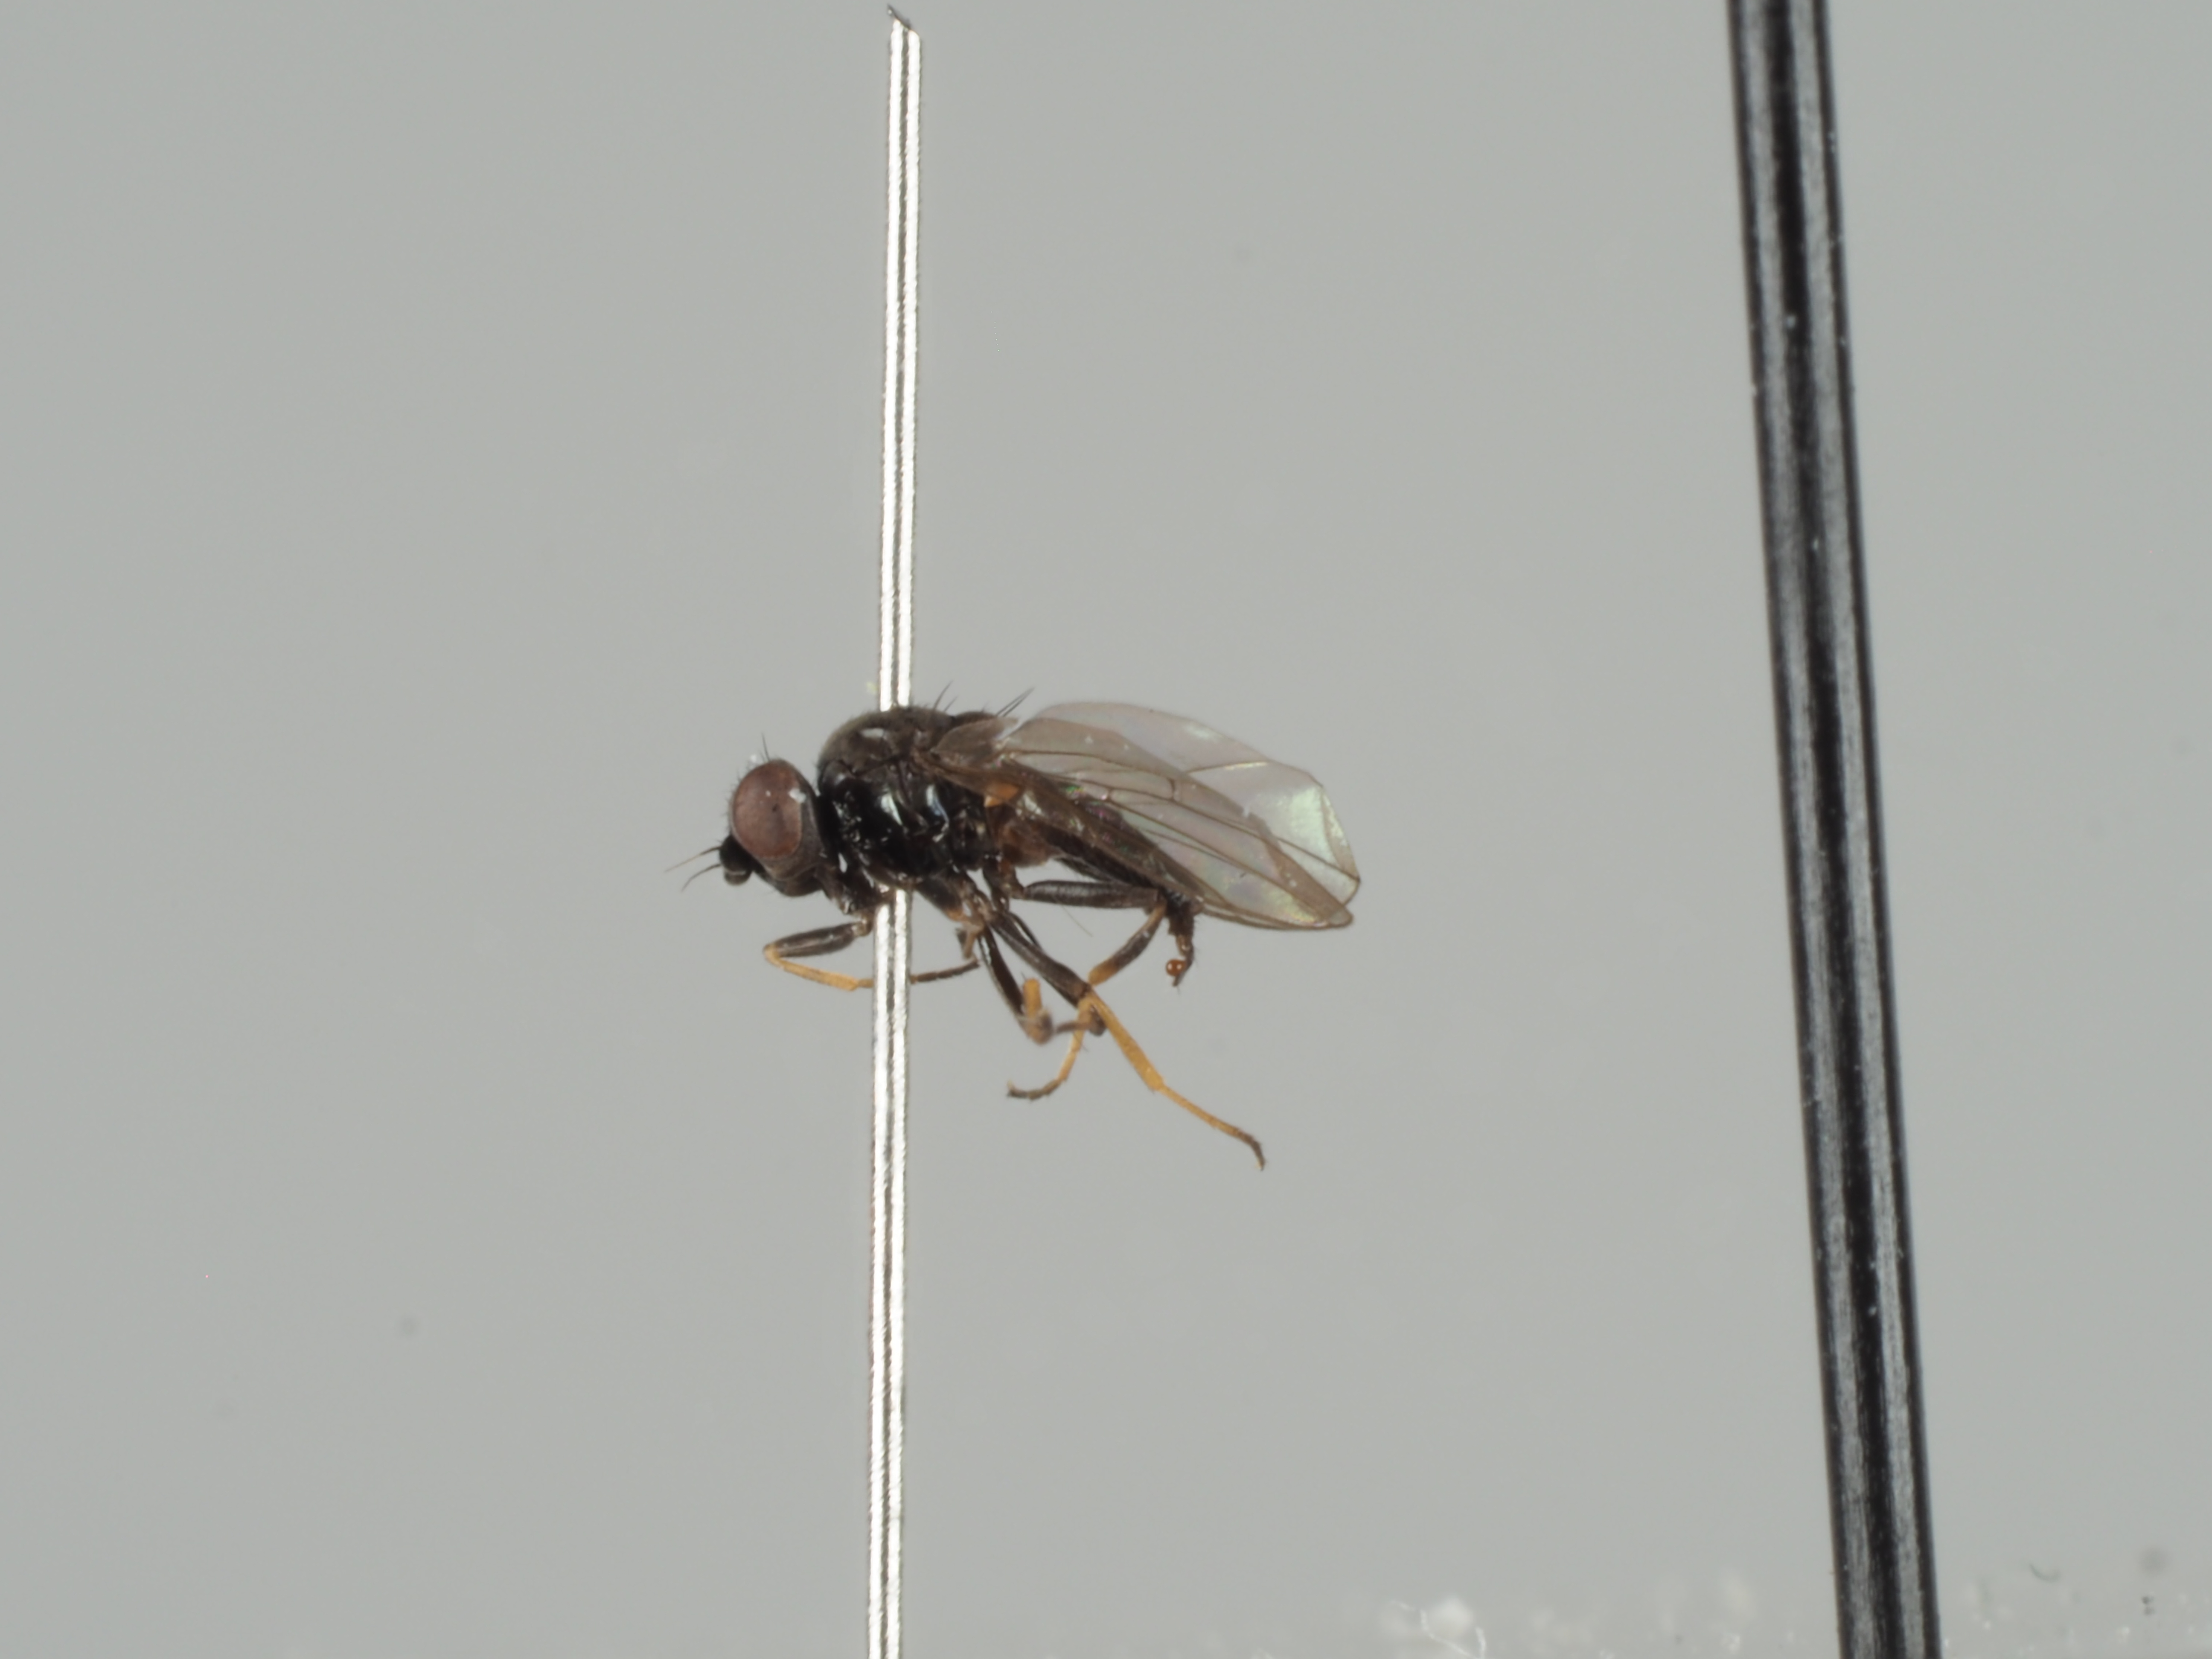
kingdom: Animalia
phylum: Arthropoda
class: Insecta
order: Diptera
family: Chloropidae
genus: Oscinella
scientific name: Oscinella pusilla
